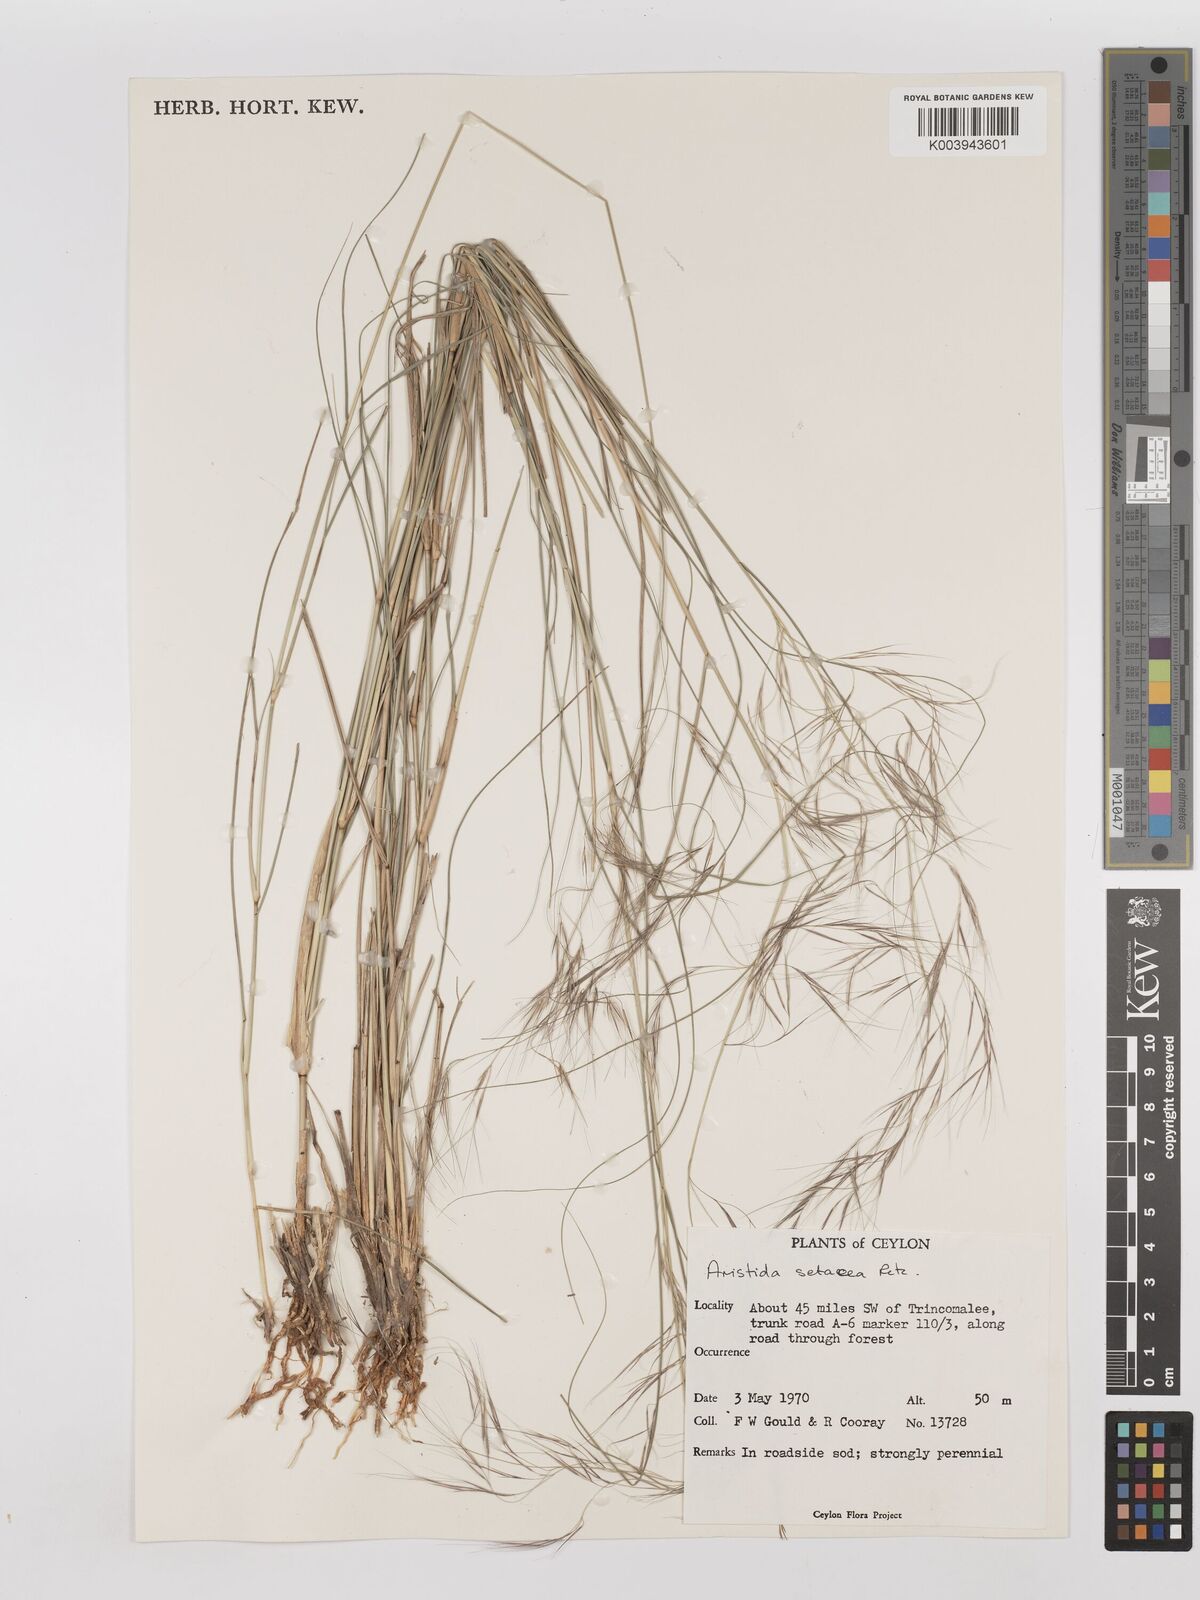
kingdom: Plantae
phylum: Tracheophyta
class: Liliopsida
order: Poales
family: Poaceae
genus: Aristida
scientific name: Aristida setacea
